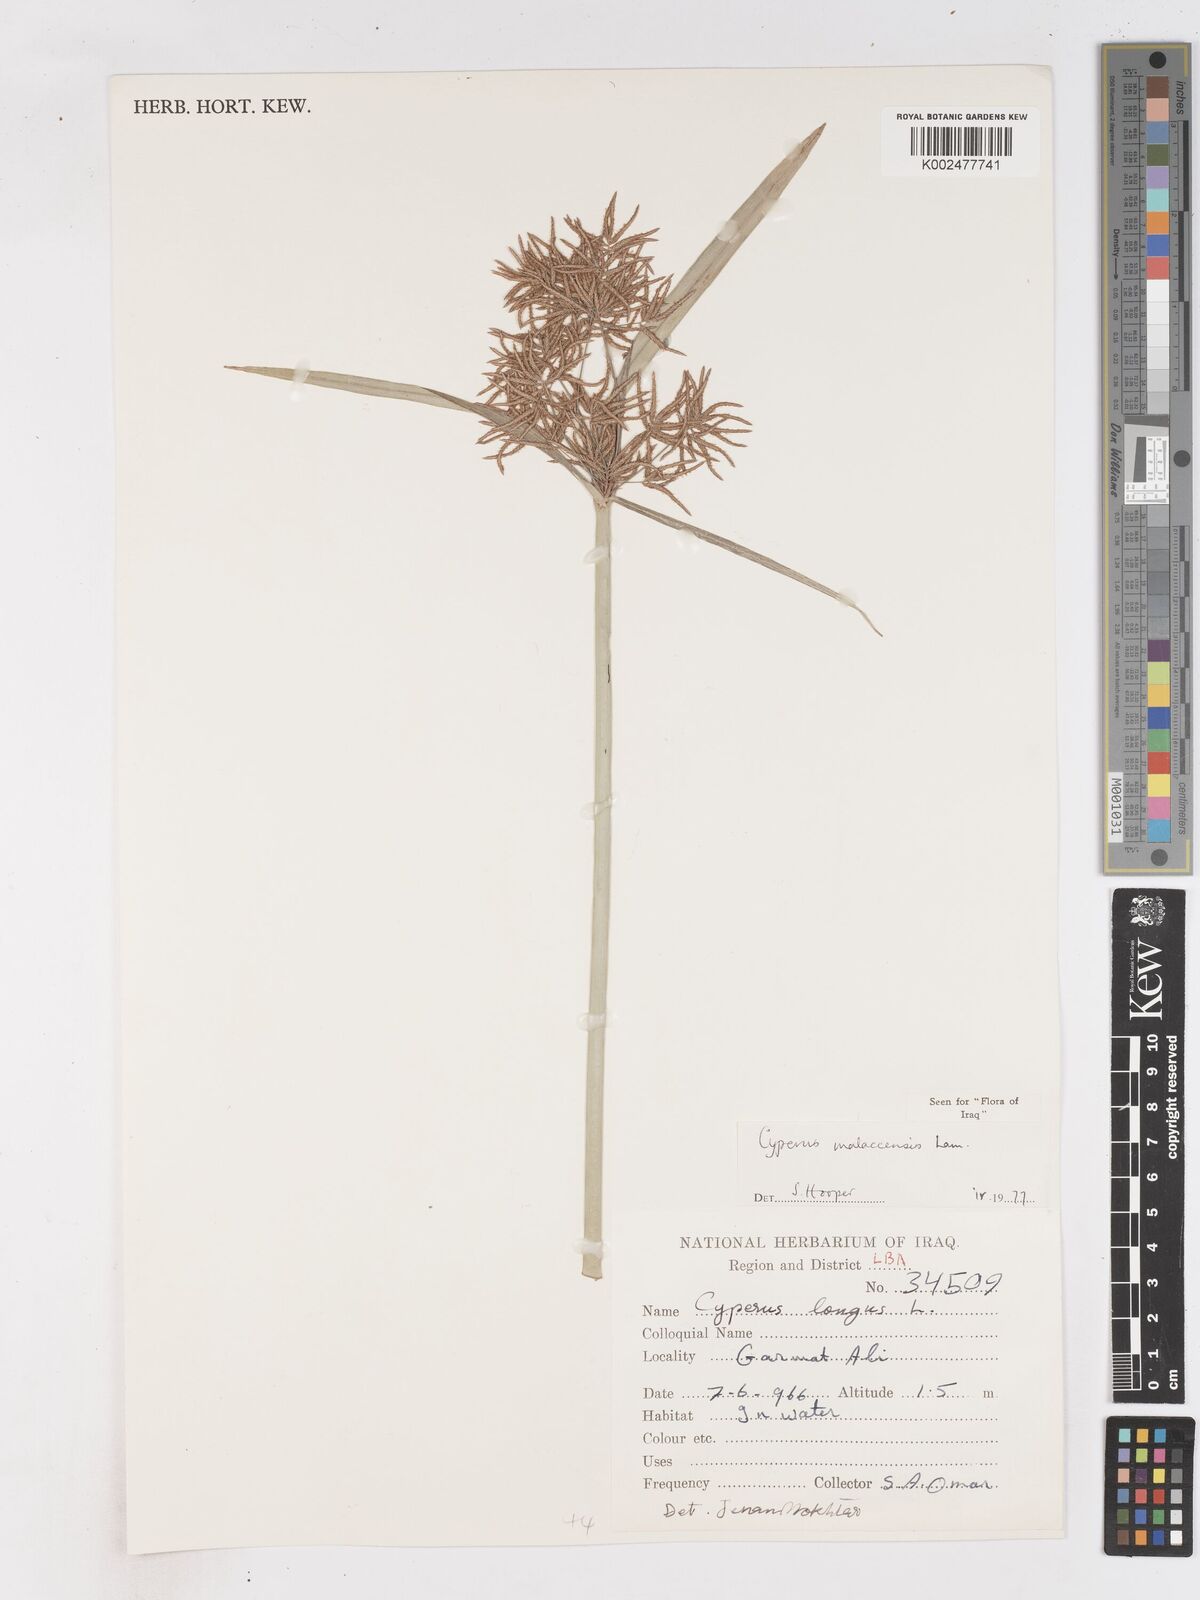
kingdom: Plantae
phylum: Tracheophyta
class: Liliopsida
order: Poales
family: Cyperaceae
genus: Cyperus
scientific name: Cyperus malaccensis
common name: Shichito matgrass
